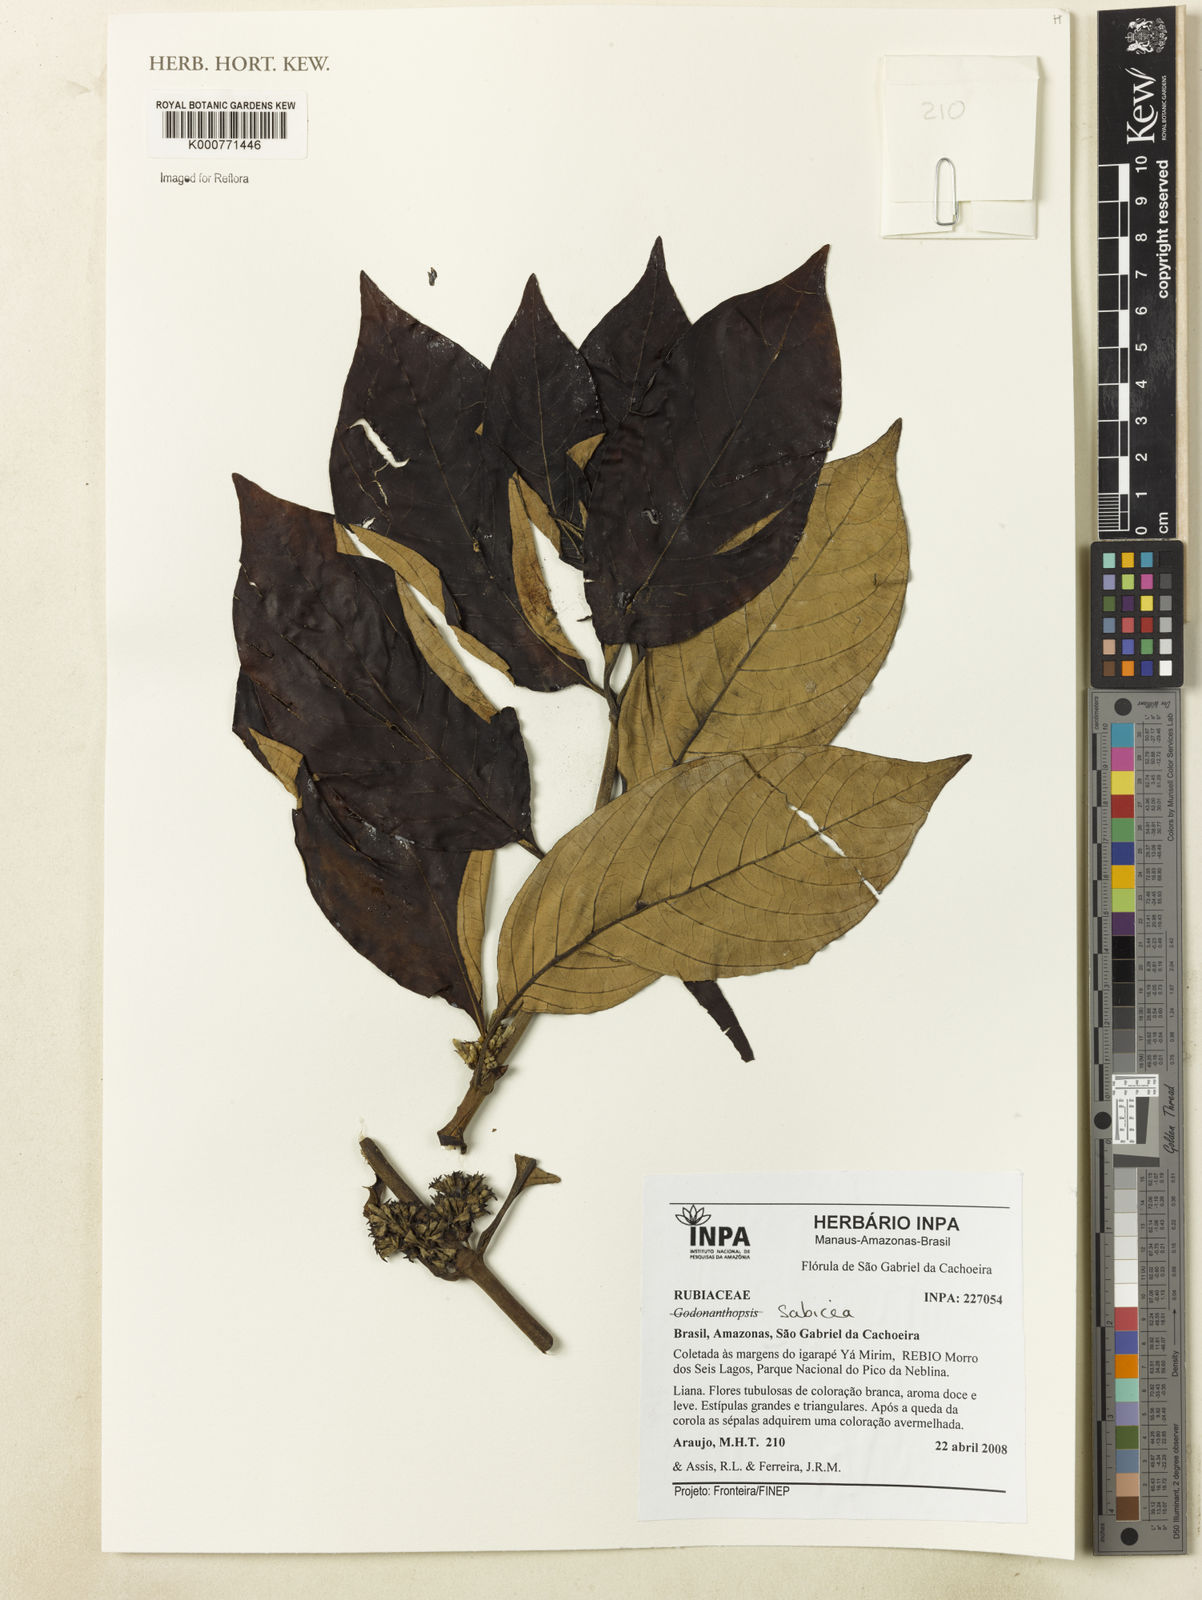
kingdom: Plantae
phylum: Tracheophyta
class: Magnoliopsida
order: Gentianales
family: Rubiaceae
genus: Sabicea
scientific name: Sabicea
